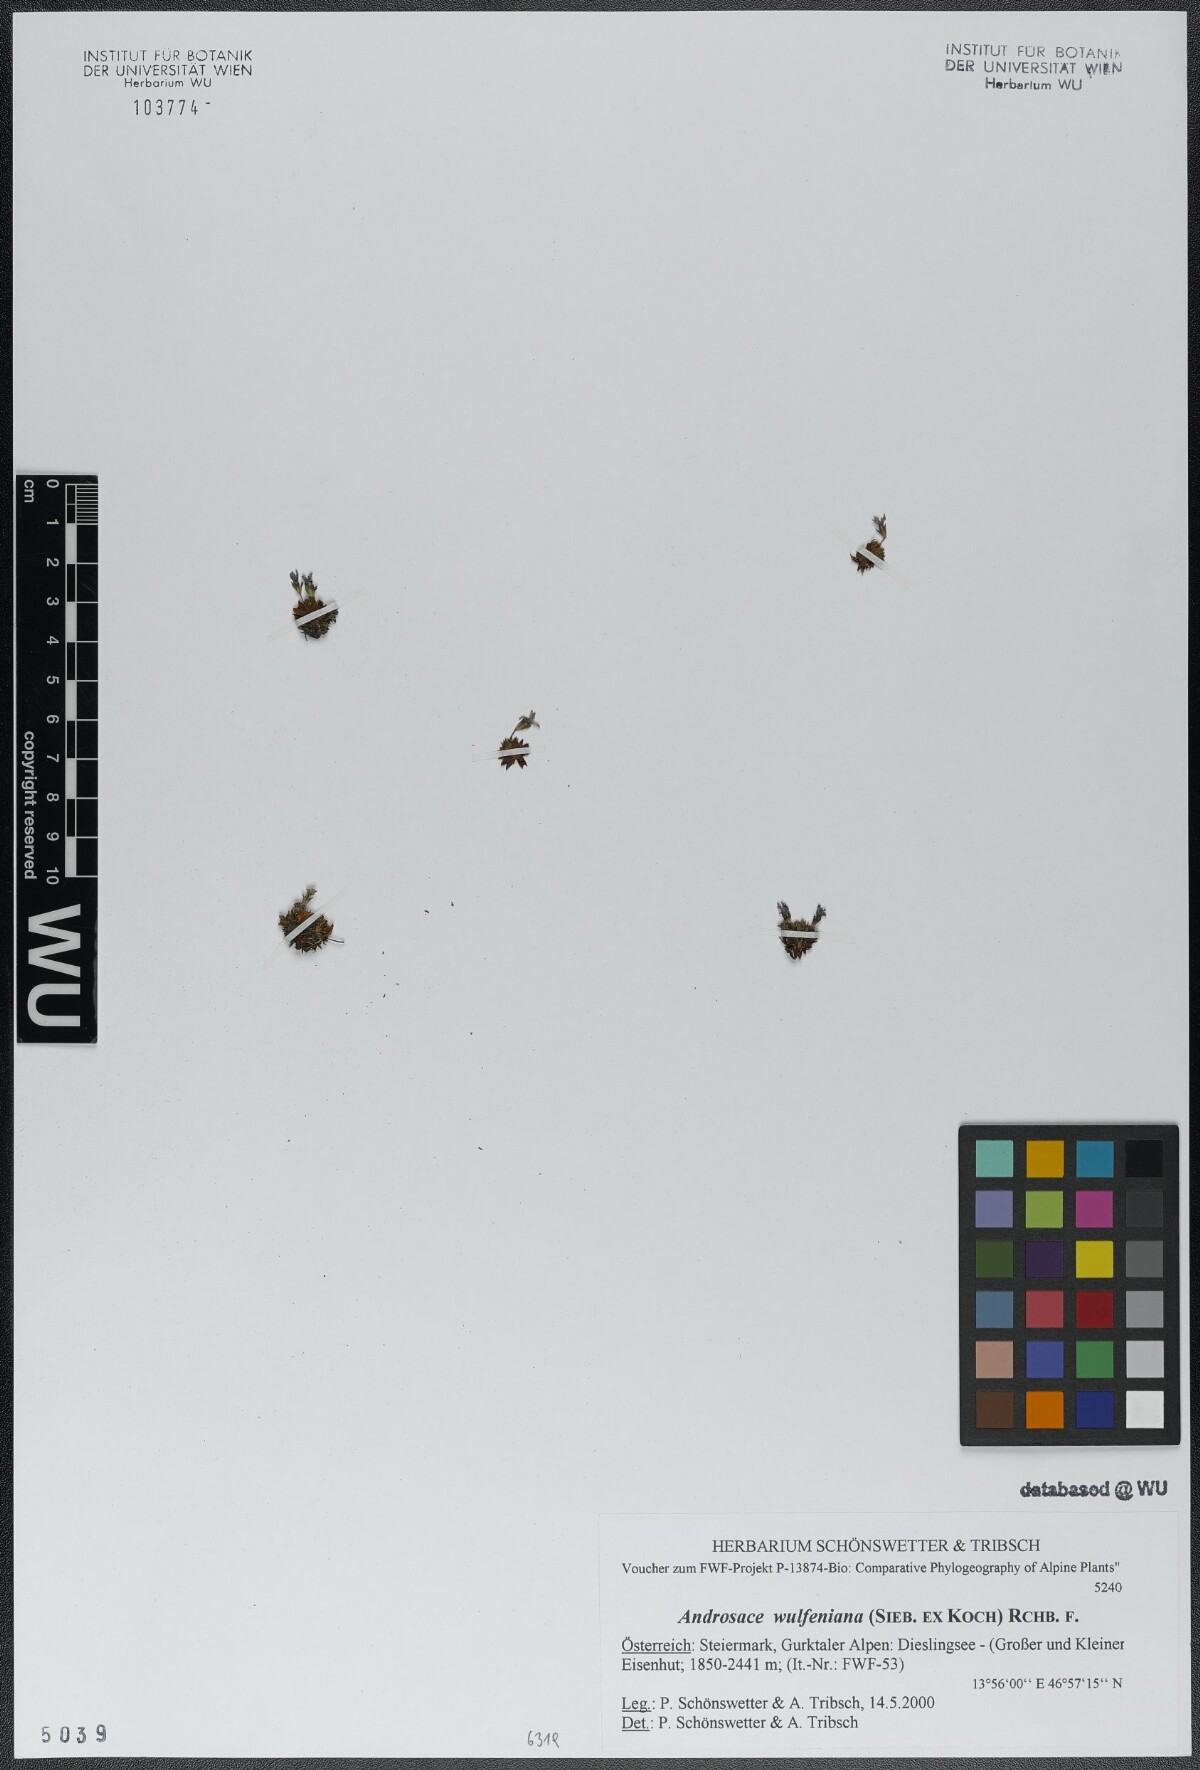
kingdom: Plantae
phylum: Tracheophyta
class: Magnoliopsida
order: Ericales
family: Primulaceae
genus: Androsace
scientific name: Androsace wulfeniana
